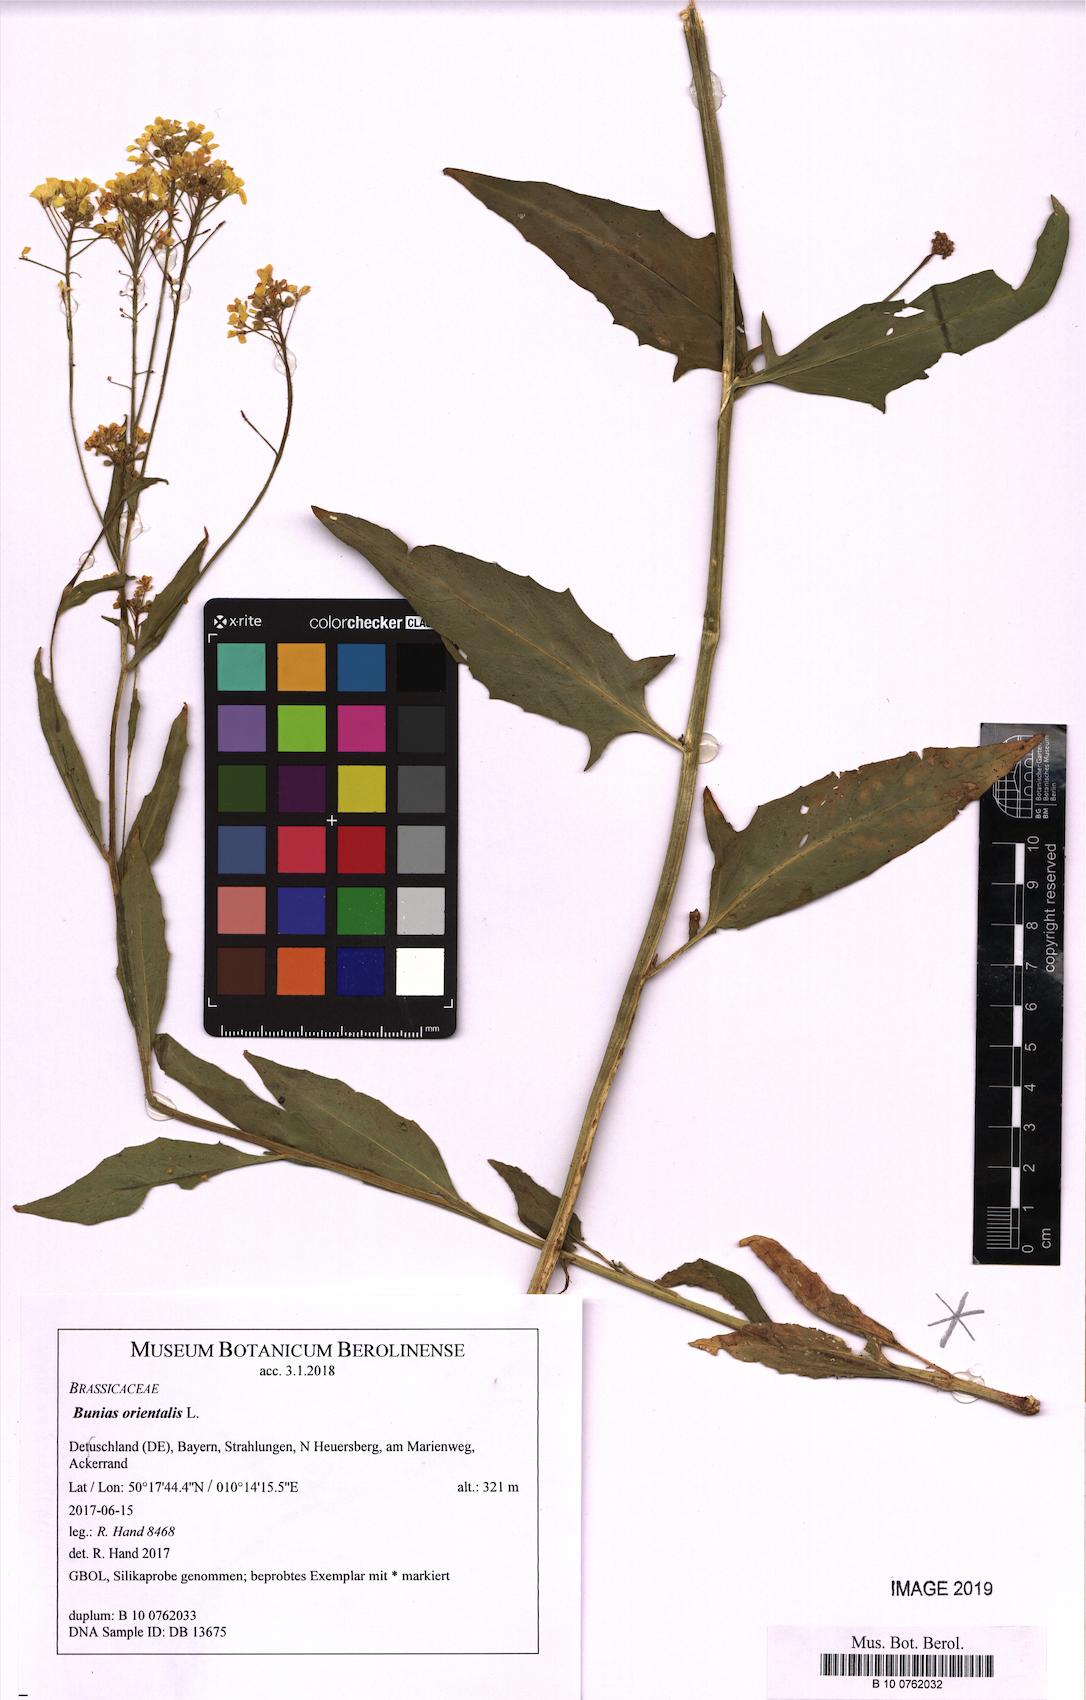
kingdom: Plantae
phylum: Tracheophyta
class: Magnoliopsida
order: Brassicales
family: Brassicaceae
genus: Bunias
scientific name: Bunias orientalis
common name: Warty-cabbage
